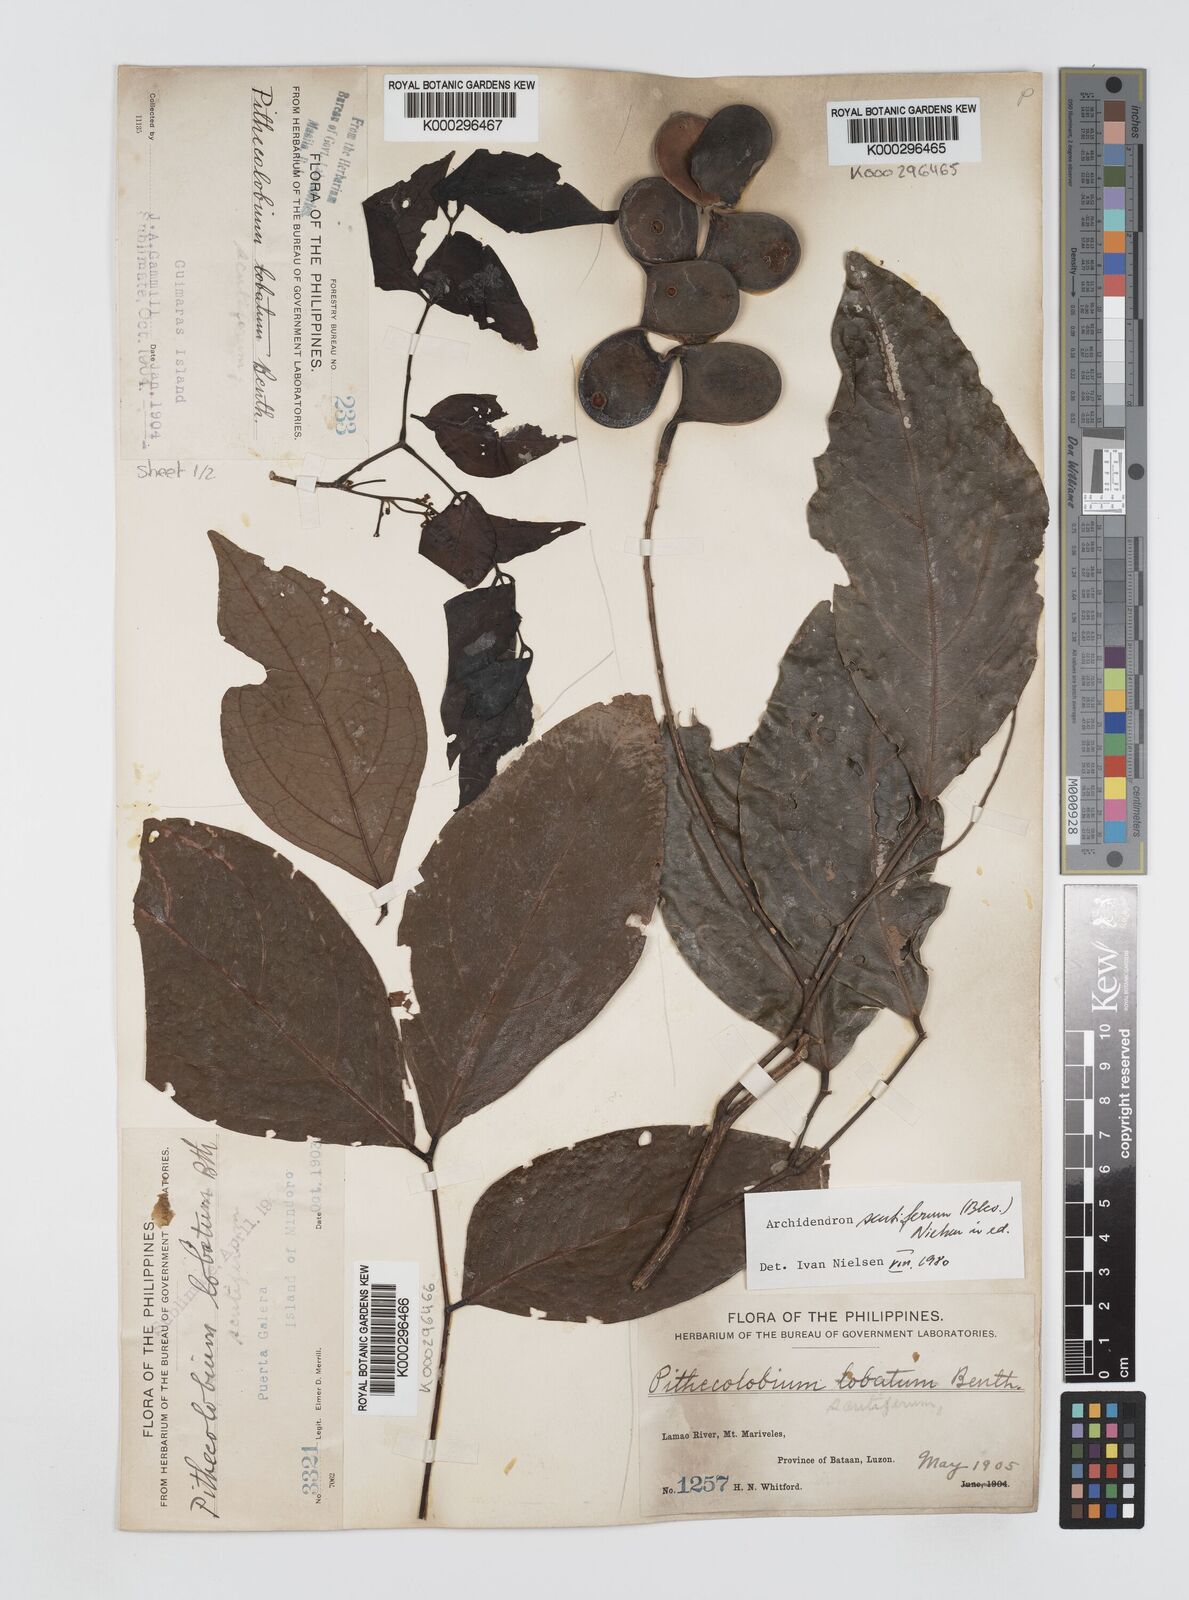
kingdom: Plantae
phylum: Tracheophyta
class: Magnoliopsida
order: Fabales
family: Fabaceae
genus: Archidendron
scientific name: Archidendron scutiferum
